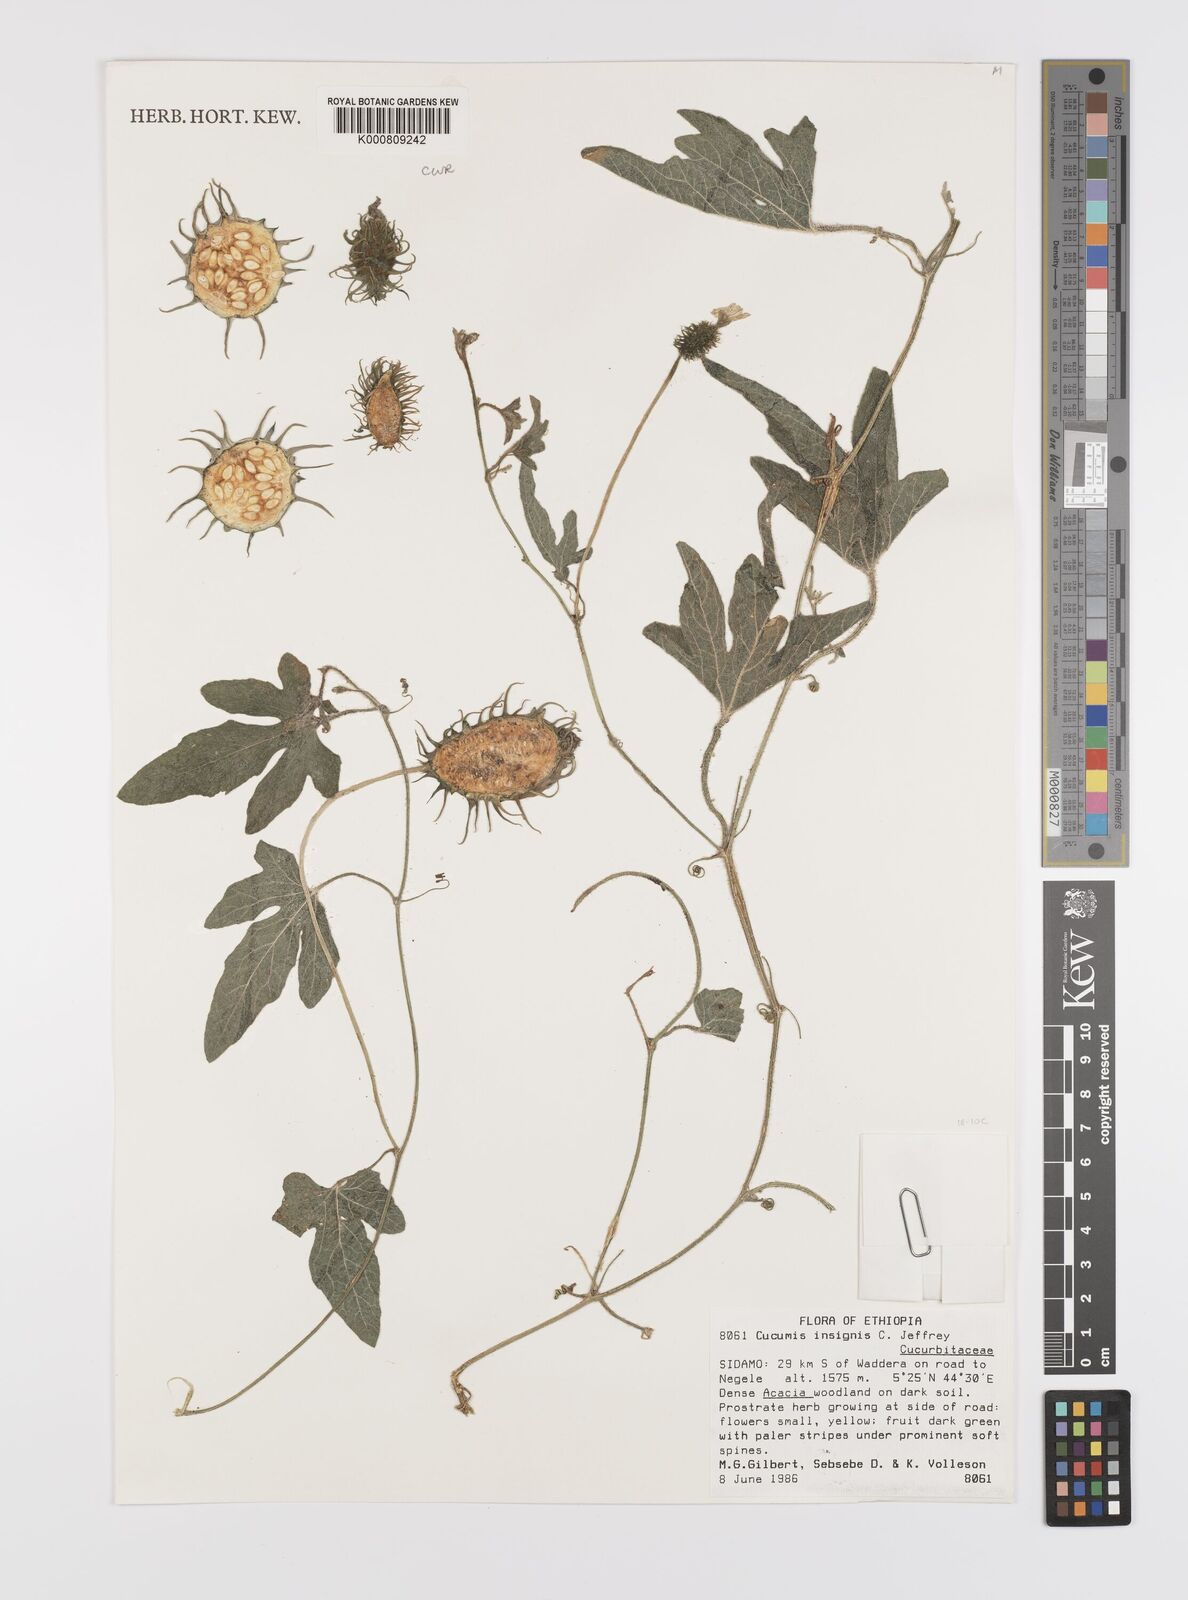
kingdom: Plantae
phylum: Tracheophyta
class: Magnoliopsida
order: Cucurbitales
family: Cucurbitaceae
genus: Cucumis
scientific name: Cucumis insignis
